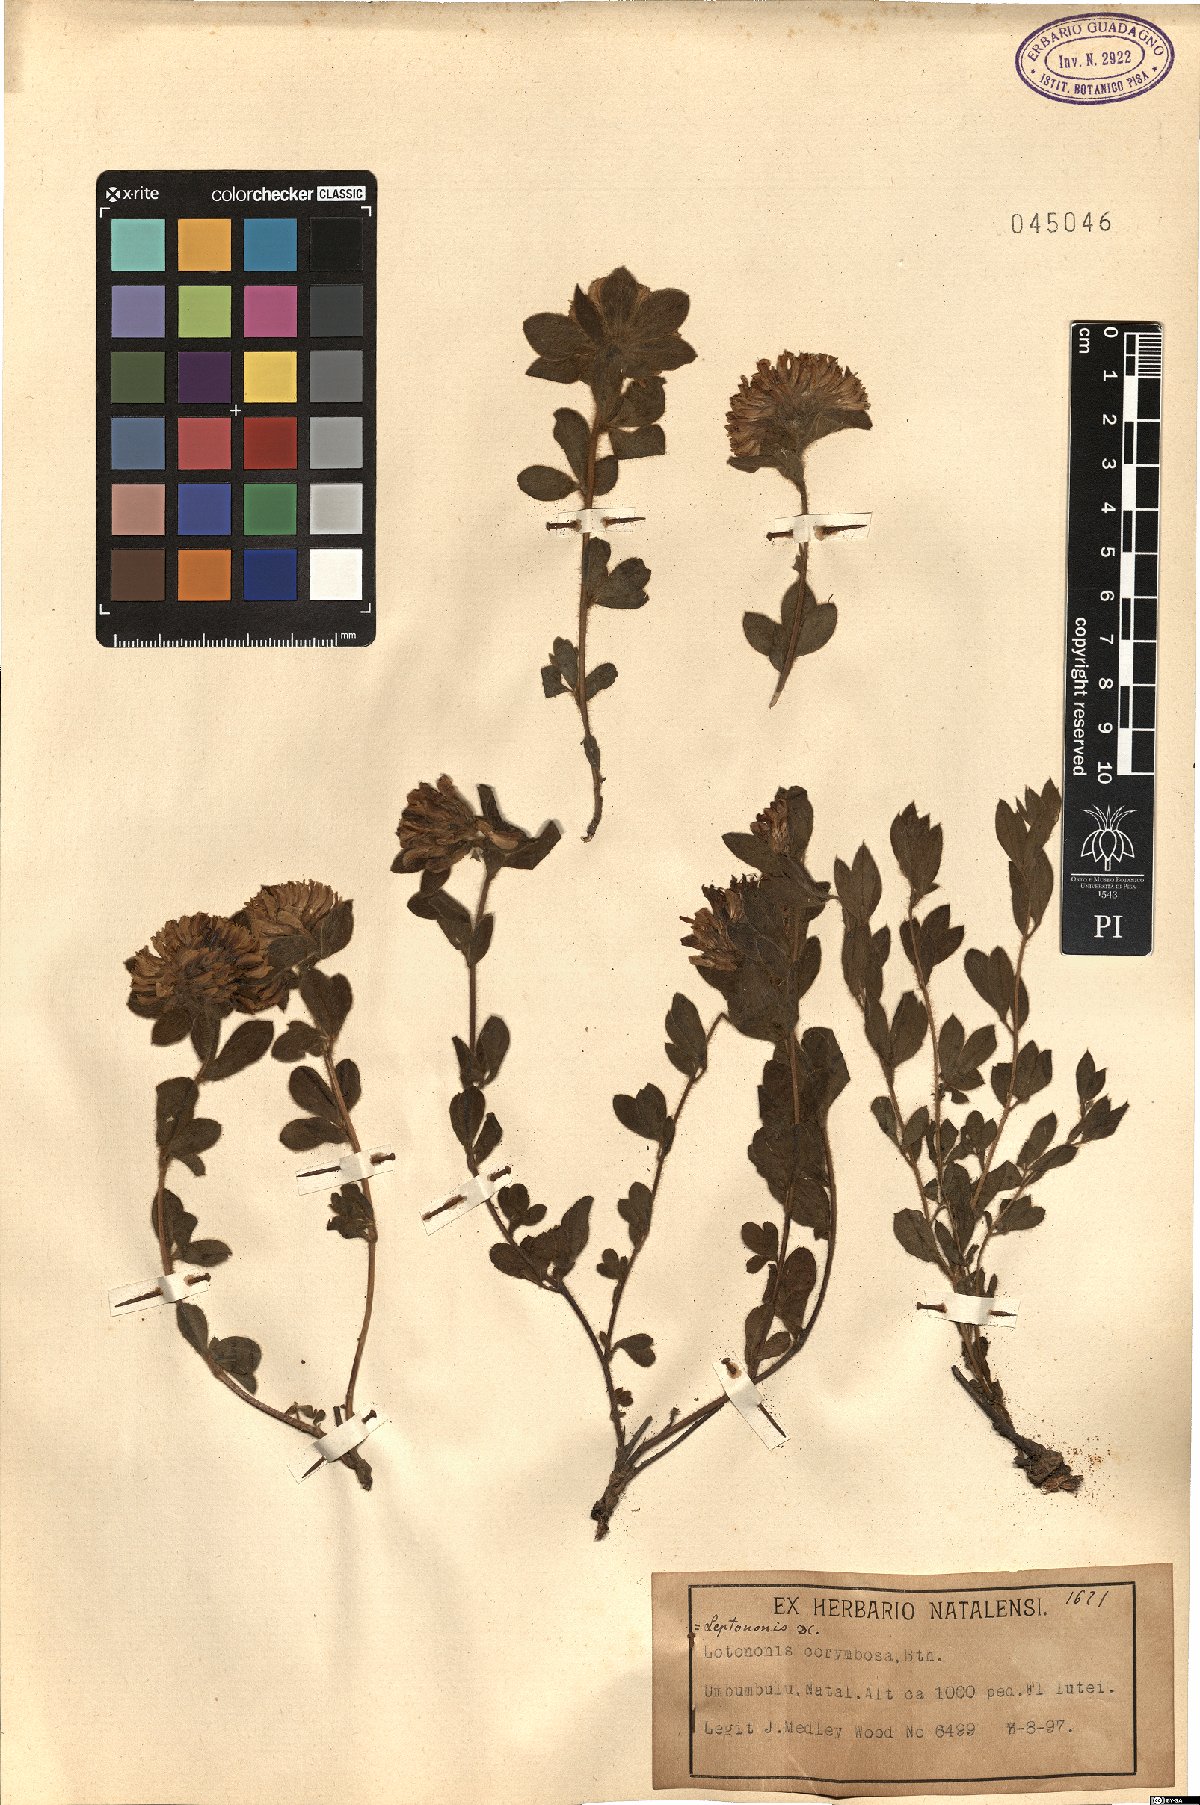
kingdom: Plantae
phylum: Tracheophyta
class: Magnoliopsida
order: Fabales
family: Fabaceae
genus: Leobordea
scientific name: Leobordea corymbosa
